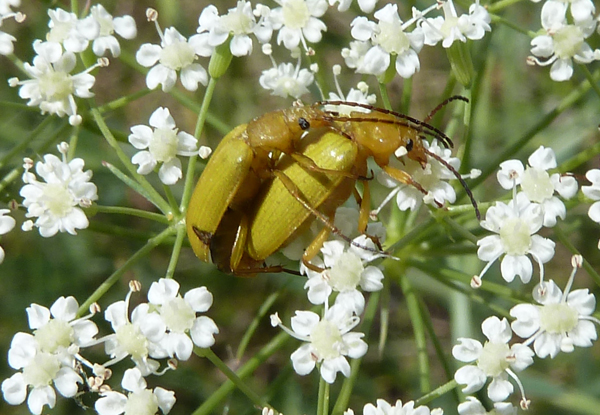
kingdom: Animalia
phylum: Arthropoda
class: Insecta
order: Coleoptera
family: Tenebrionidae
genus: Cteniopus
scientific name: Cteniopus sulphureus
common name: Sulphur beetle
